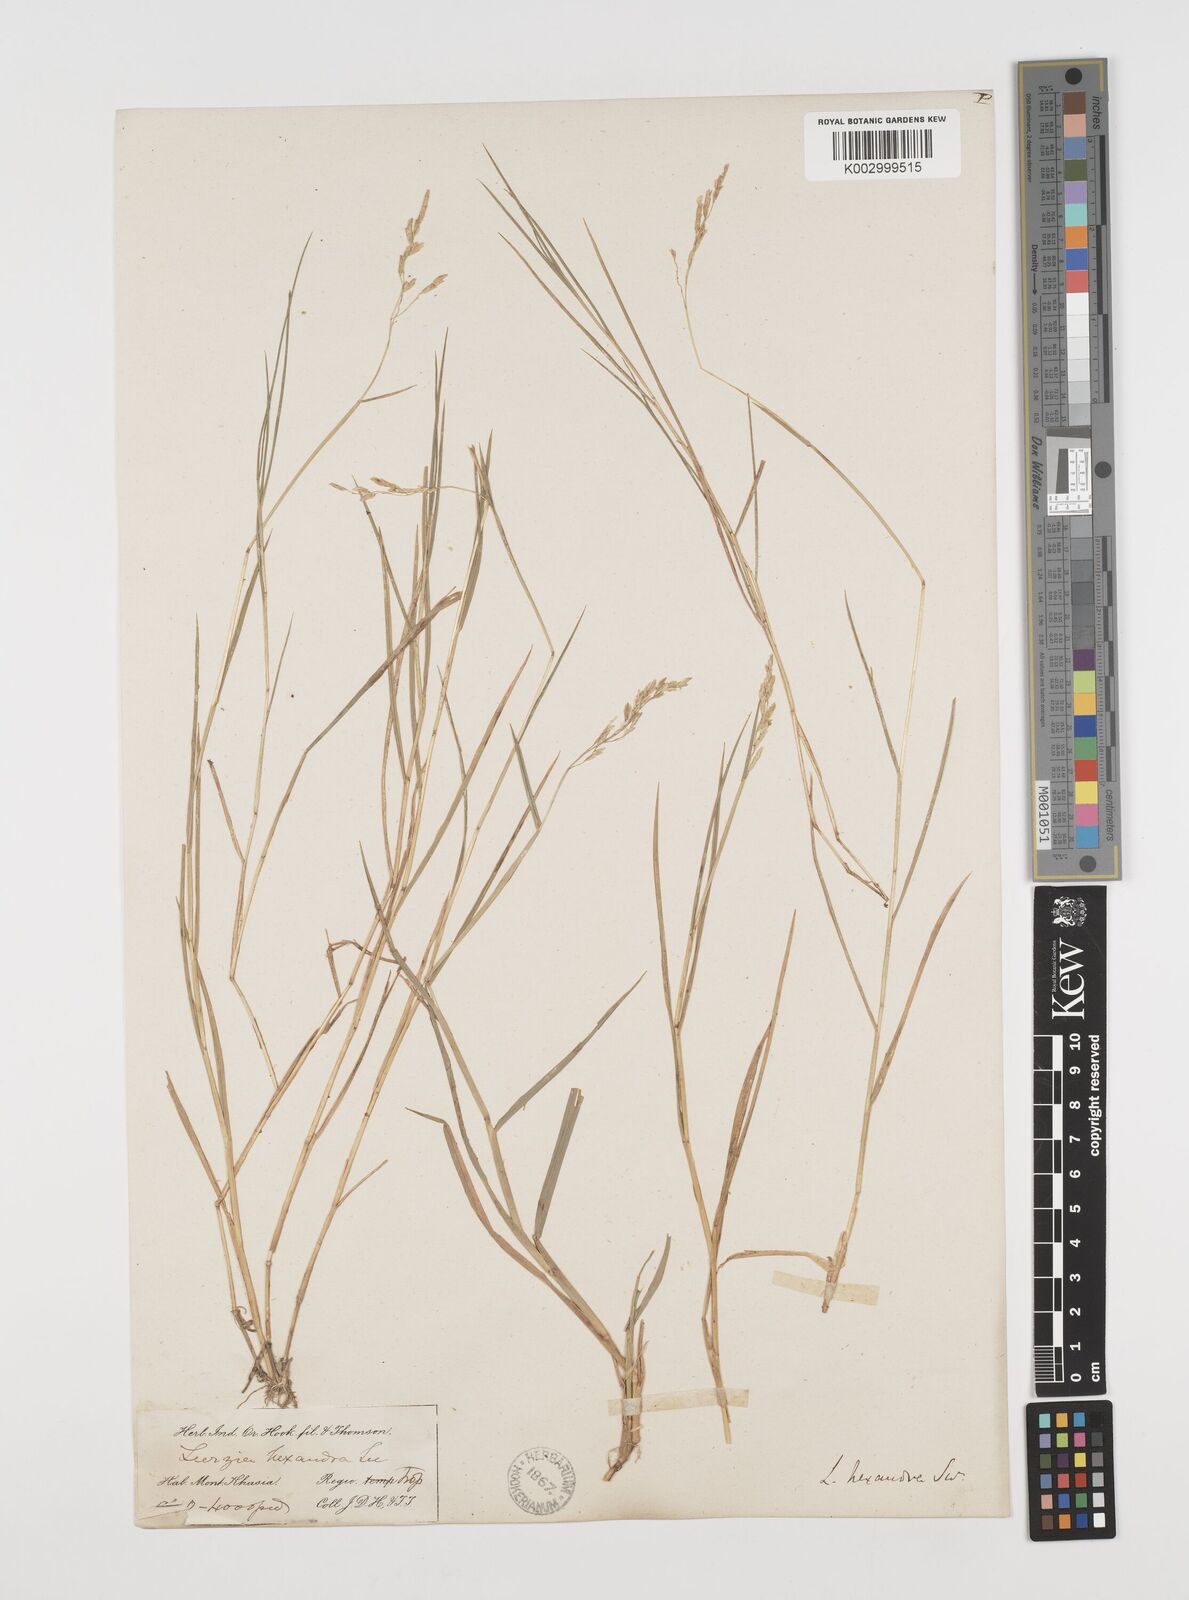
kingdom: Plantae
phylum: Tracheophyta
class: Liliopsida
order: Poales
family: Poaceae
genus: Leersia
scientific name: Leersia hexandra
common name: Southern cut grass
